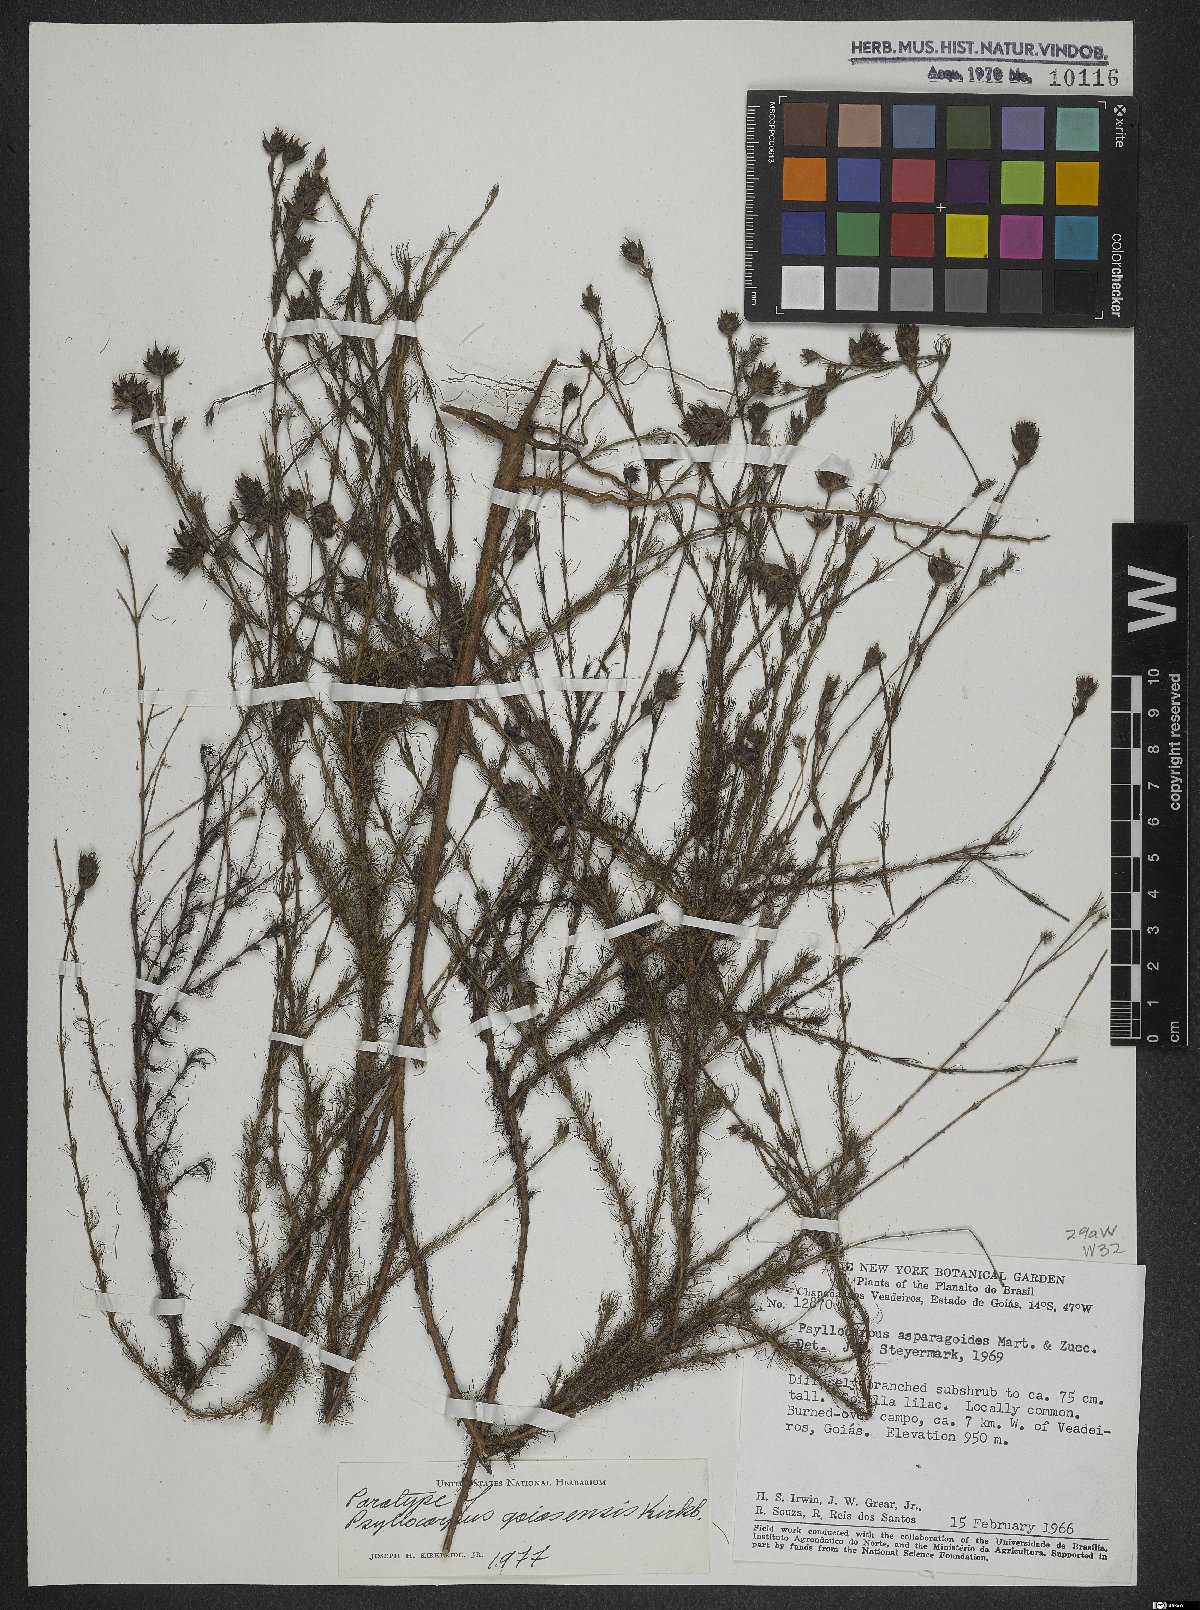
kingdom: Plantae
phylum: Tracheophyta
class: Magnoliopsida
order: Gentianales
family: Rubiaceae
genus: Psyllocarpus
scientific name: Psyllocarpus goiasensis
